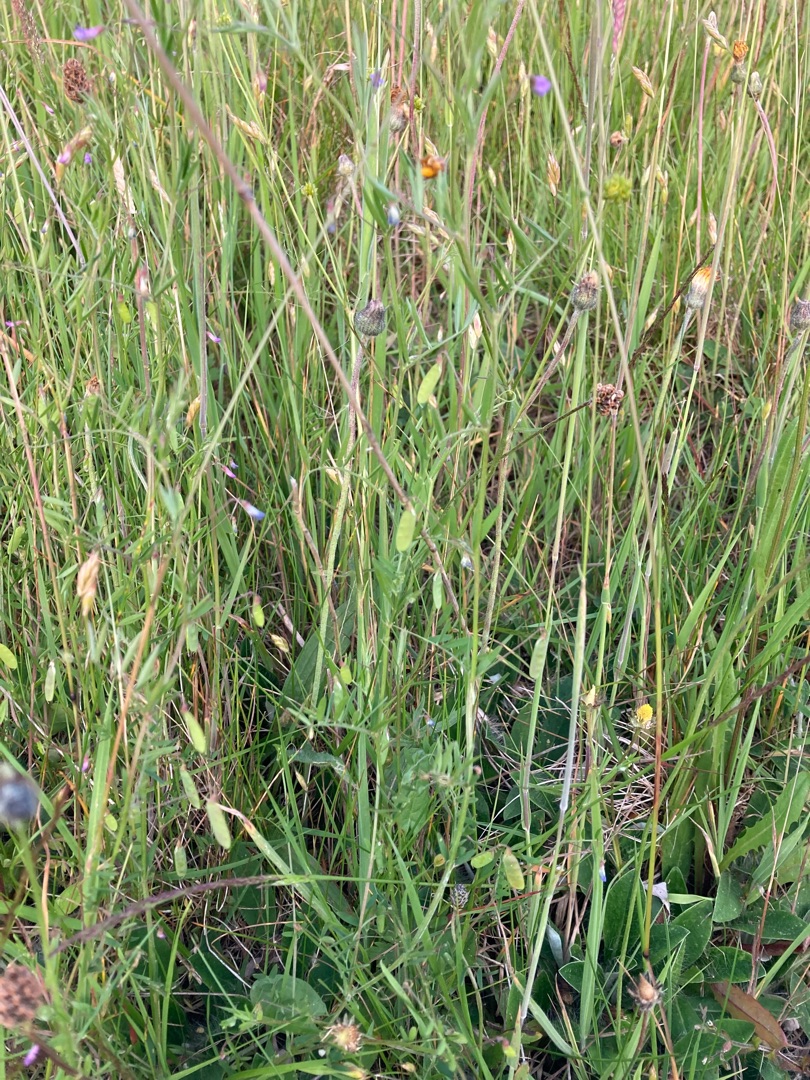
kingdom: Plantae
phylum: Tracheophyta
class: Magnoliopsida
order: Fabales
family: Fabaceae
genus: Vicia
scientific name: Vicia tetrasperma
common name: Tadder-vikke
